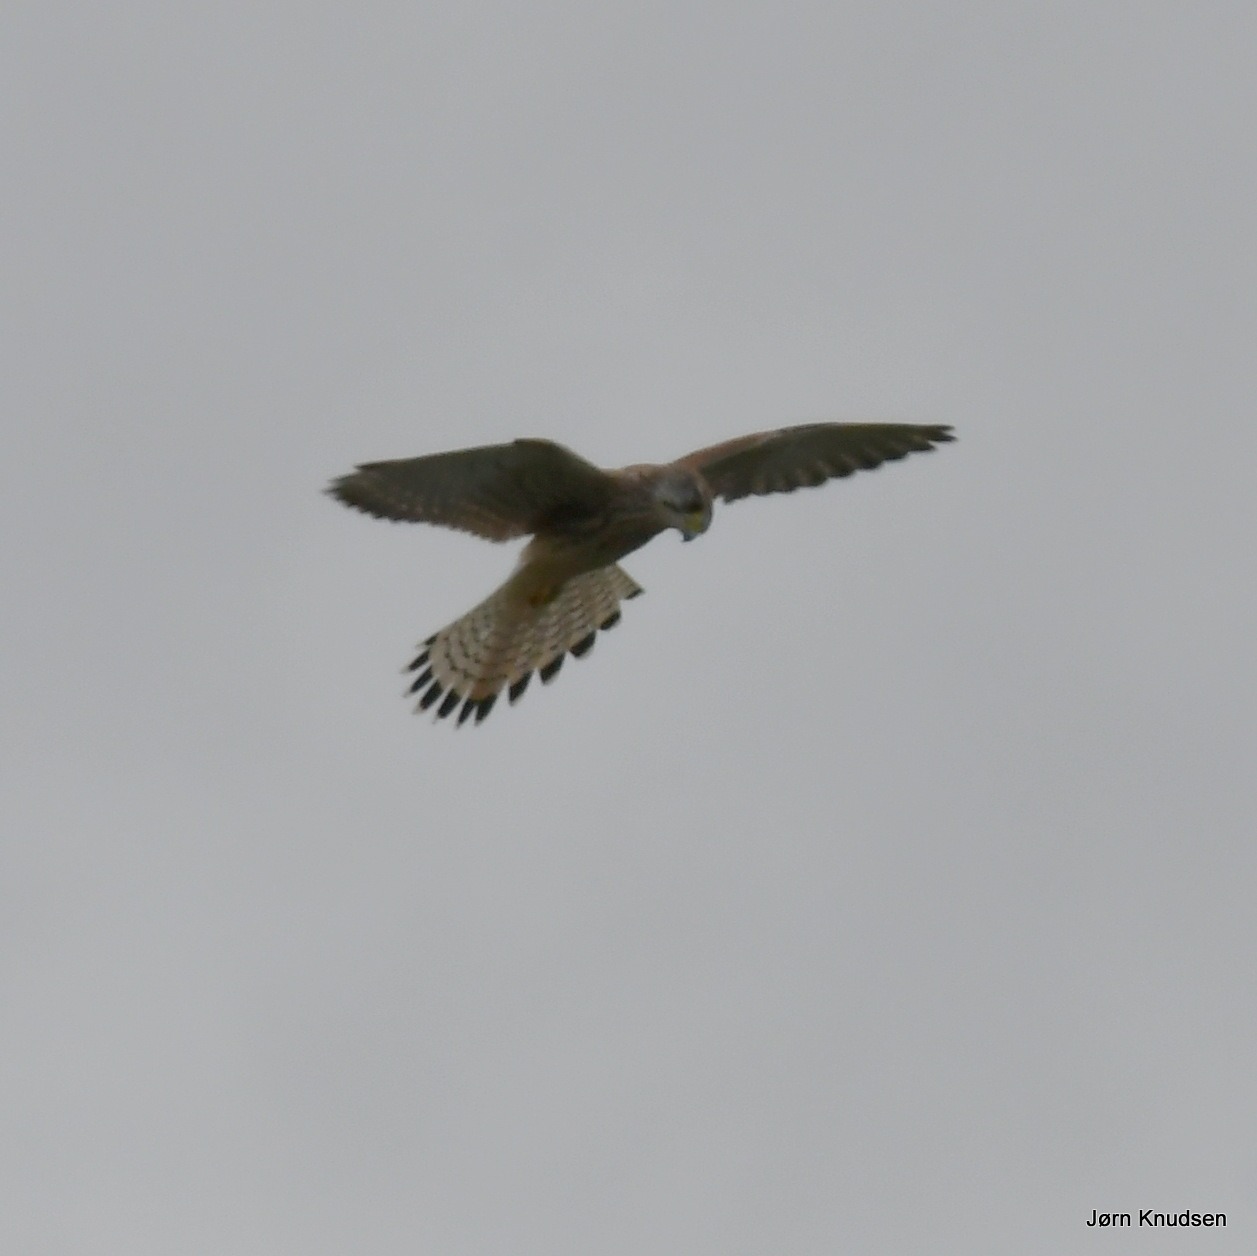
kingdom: Animalia
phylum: Chordata
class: Aves
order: Falconiformes
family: Falconidae
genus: Falco
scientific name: Falco tinnunculus
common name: Tårnfalk
